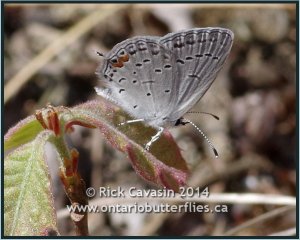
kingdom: Animalia
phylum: Arthropoda
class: Insecta
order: Lepidoptera
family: Lycaenidae
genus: Elkalyce
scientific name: Elkalyce comyntas
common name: Eastern Tailed-Blue
